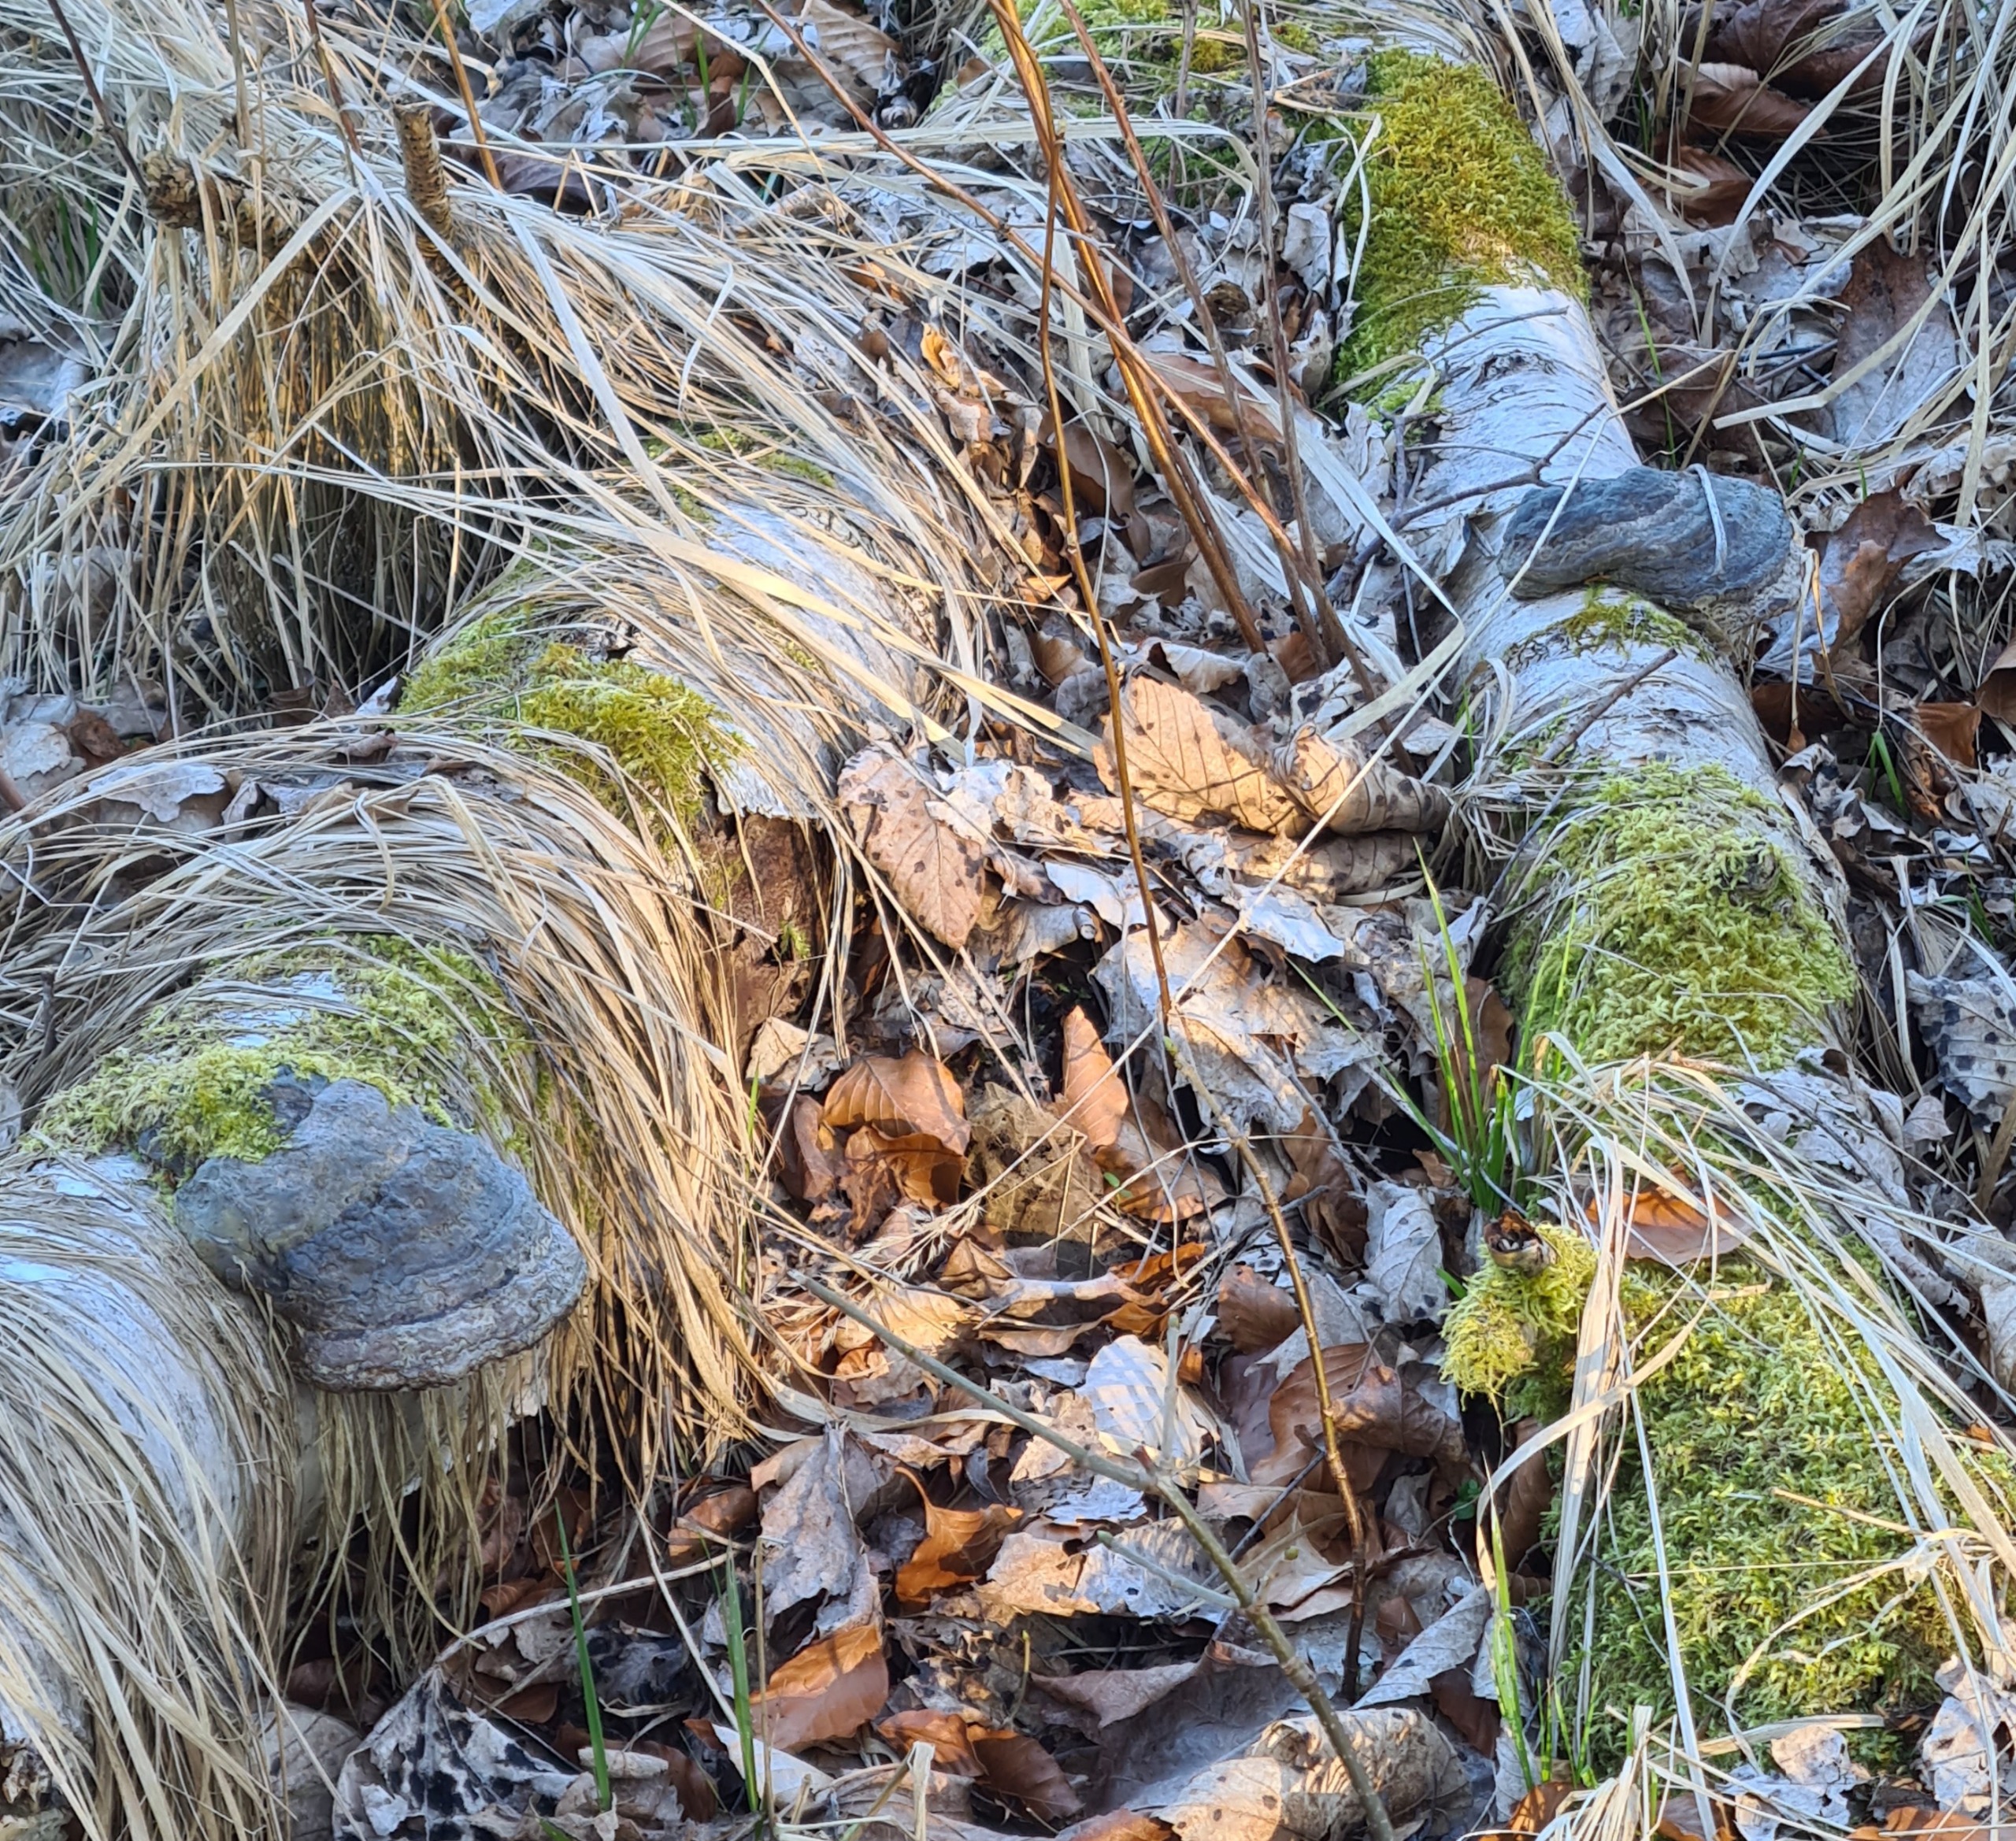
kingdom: Fungi
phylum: Basidiomycota
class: Agaricomycetes
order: Polyporales
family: Polyporaceae
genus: Fomes
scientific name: Fomes fomentarius
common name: Tøndersvamp
